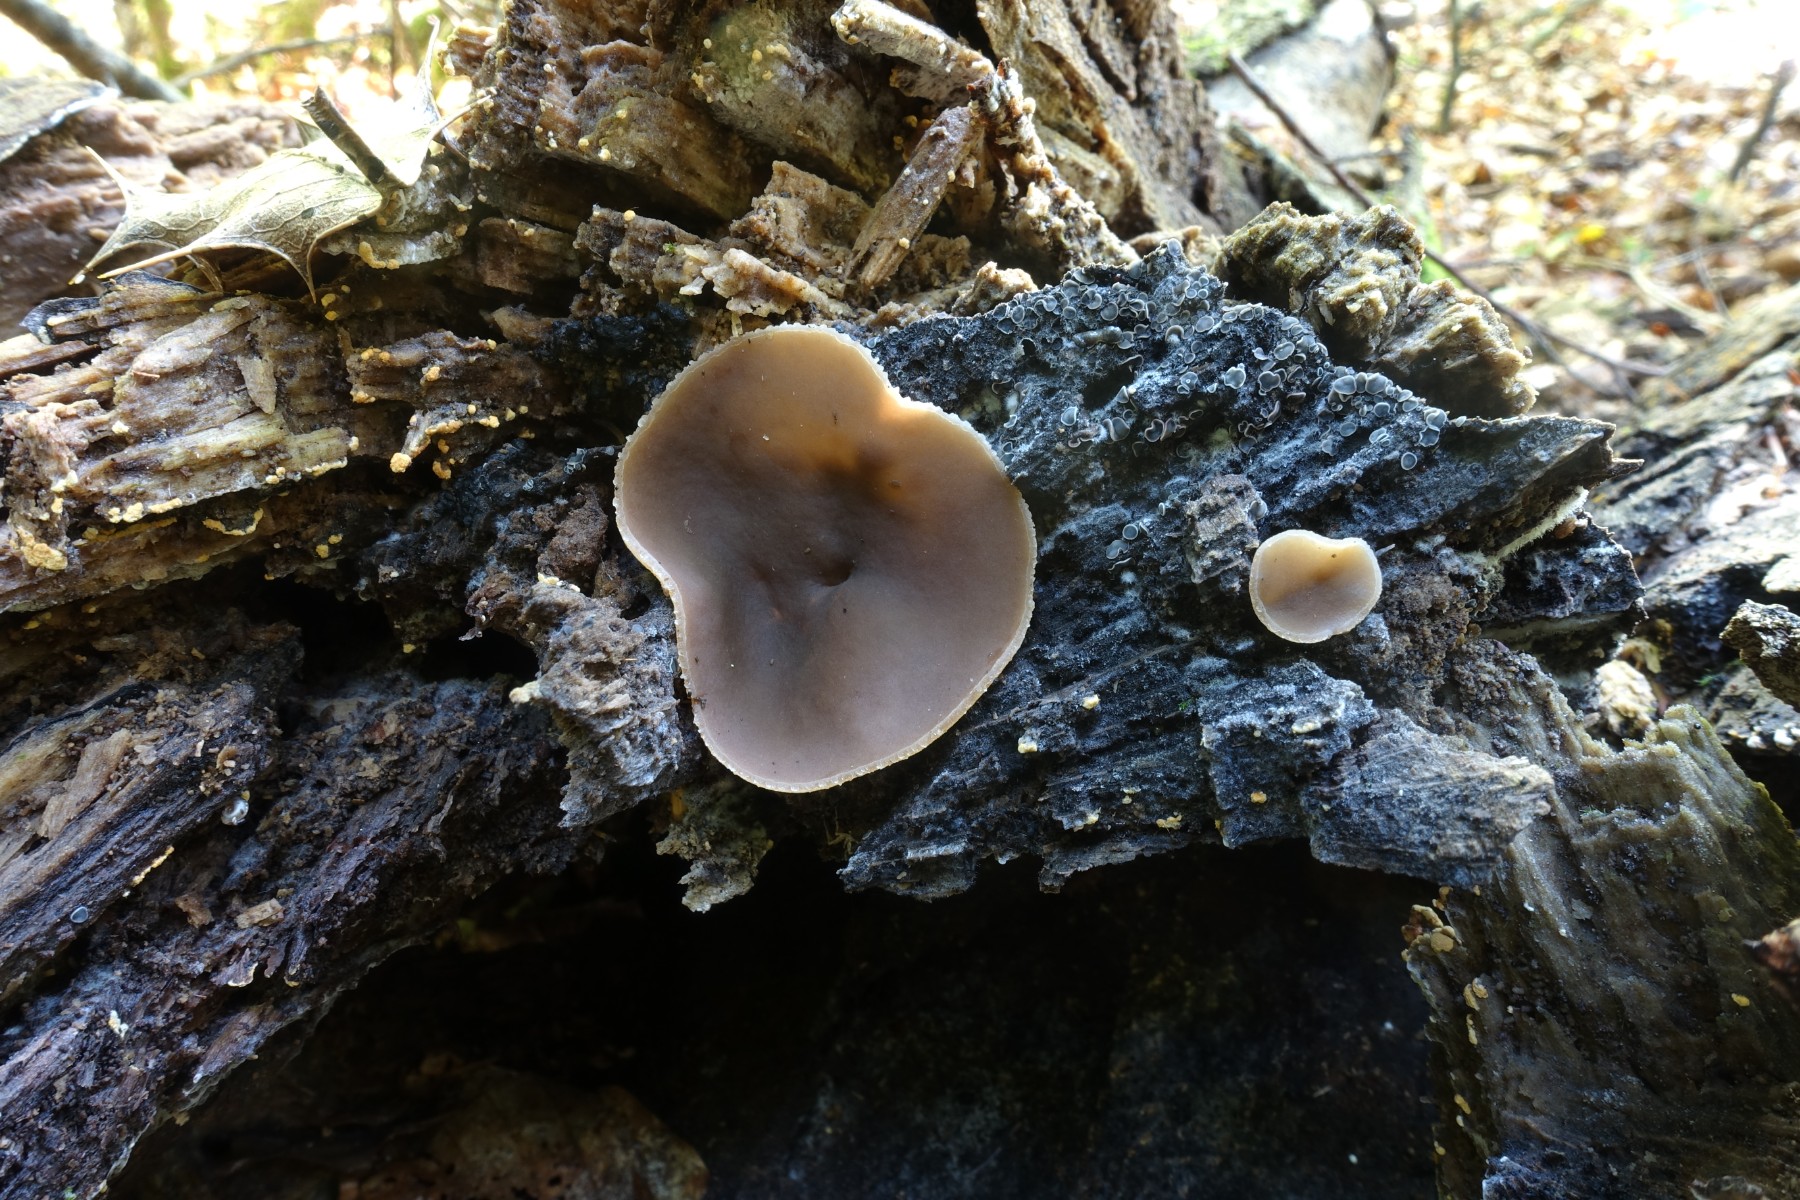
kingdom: Fungi
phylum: Ascomycota
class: Pezizomycetes
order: Pezizales
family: Pezizaceae
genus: Peziza
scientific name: Peziza varia
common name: Ved-bægersvamp
